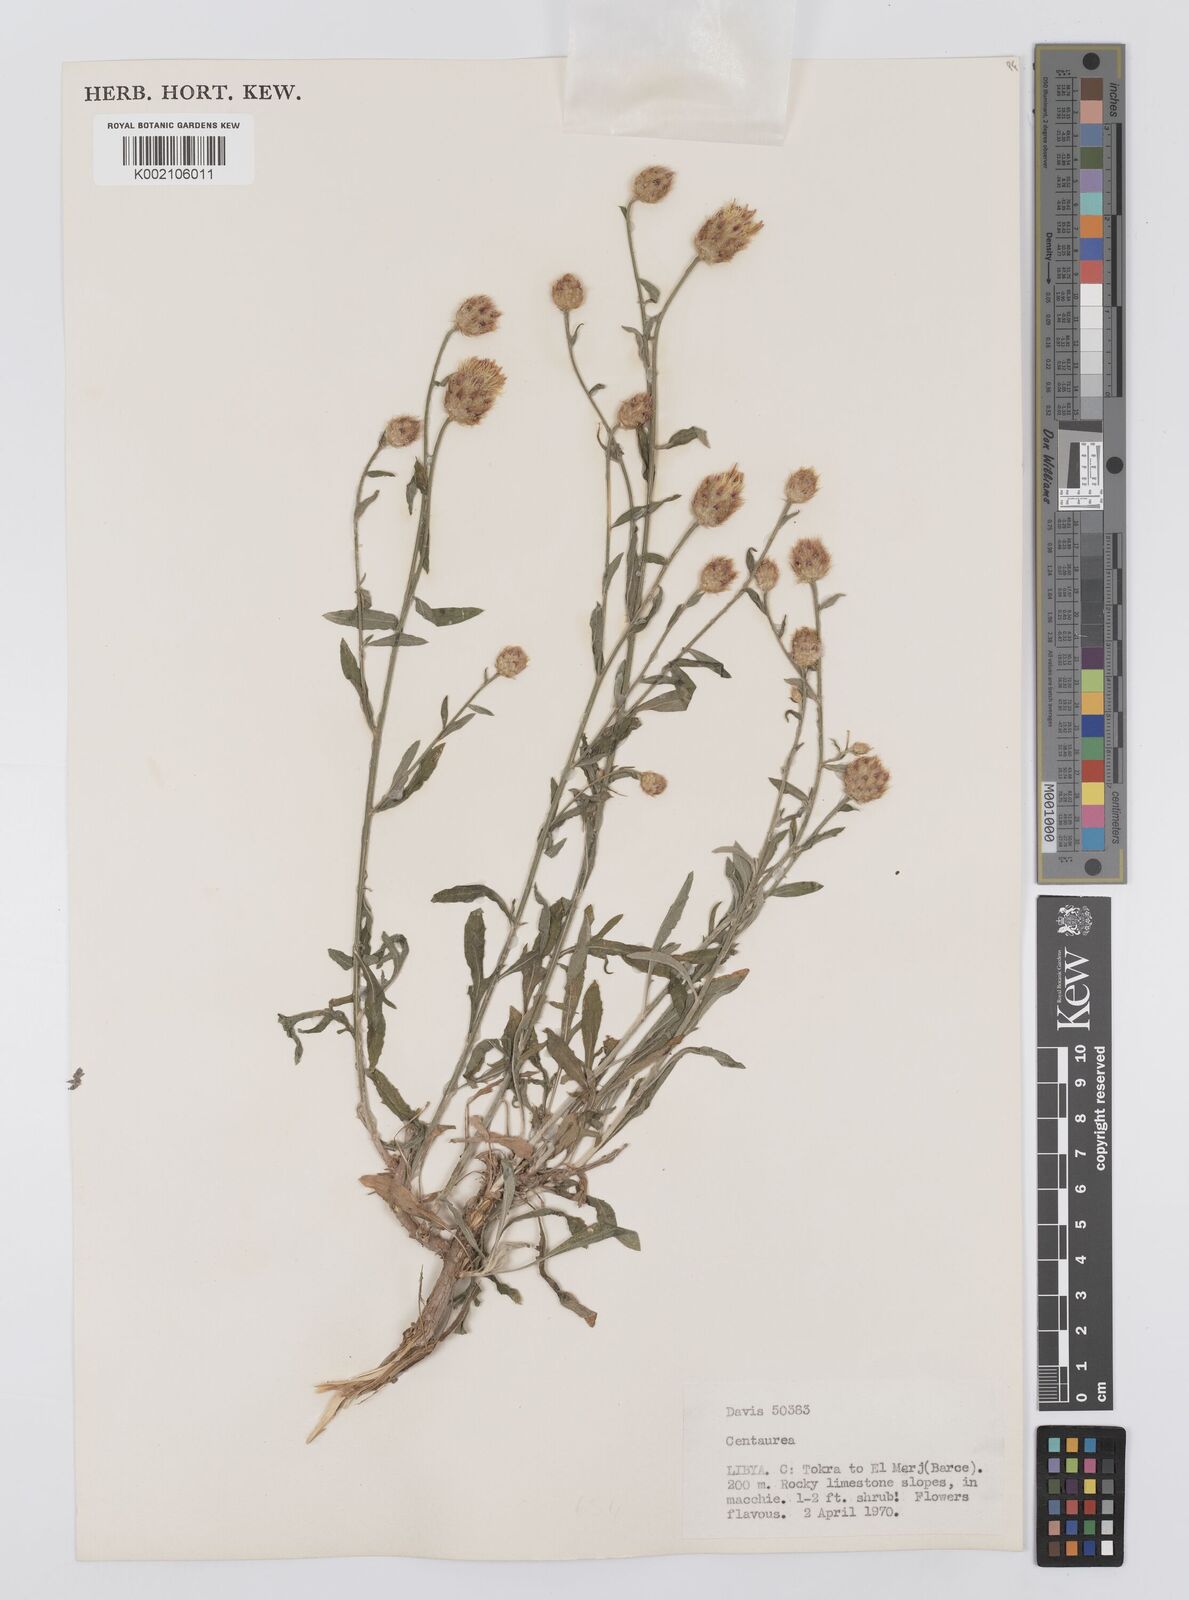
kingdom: Plantae
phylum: Tracheophyta
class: Magnoliopsida
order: Asterales
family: Asteraceae
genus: Centaurea
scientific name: Centaurea cyrenaica
